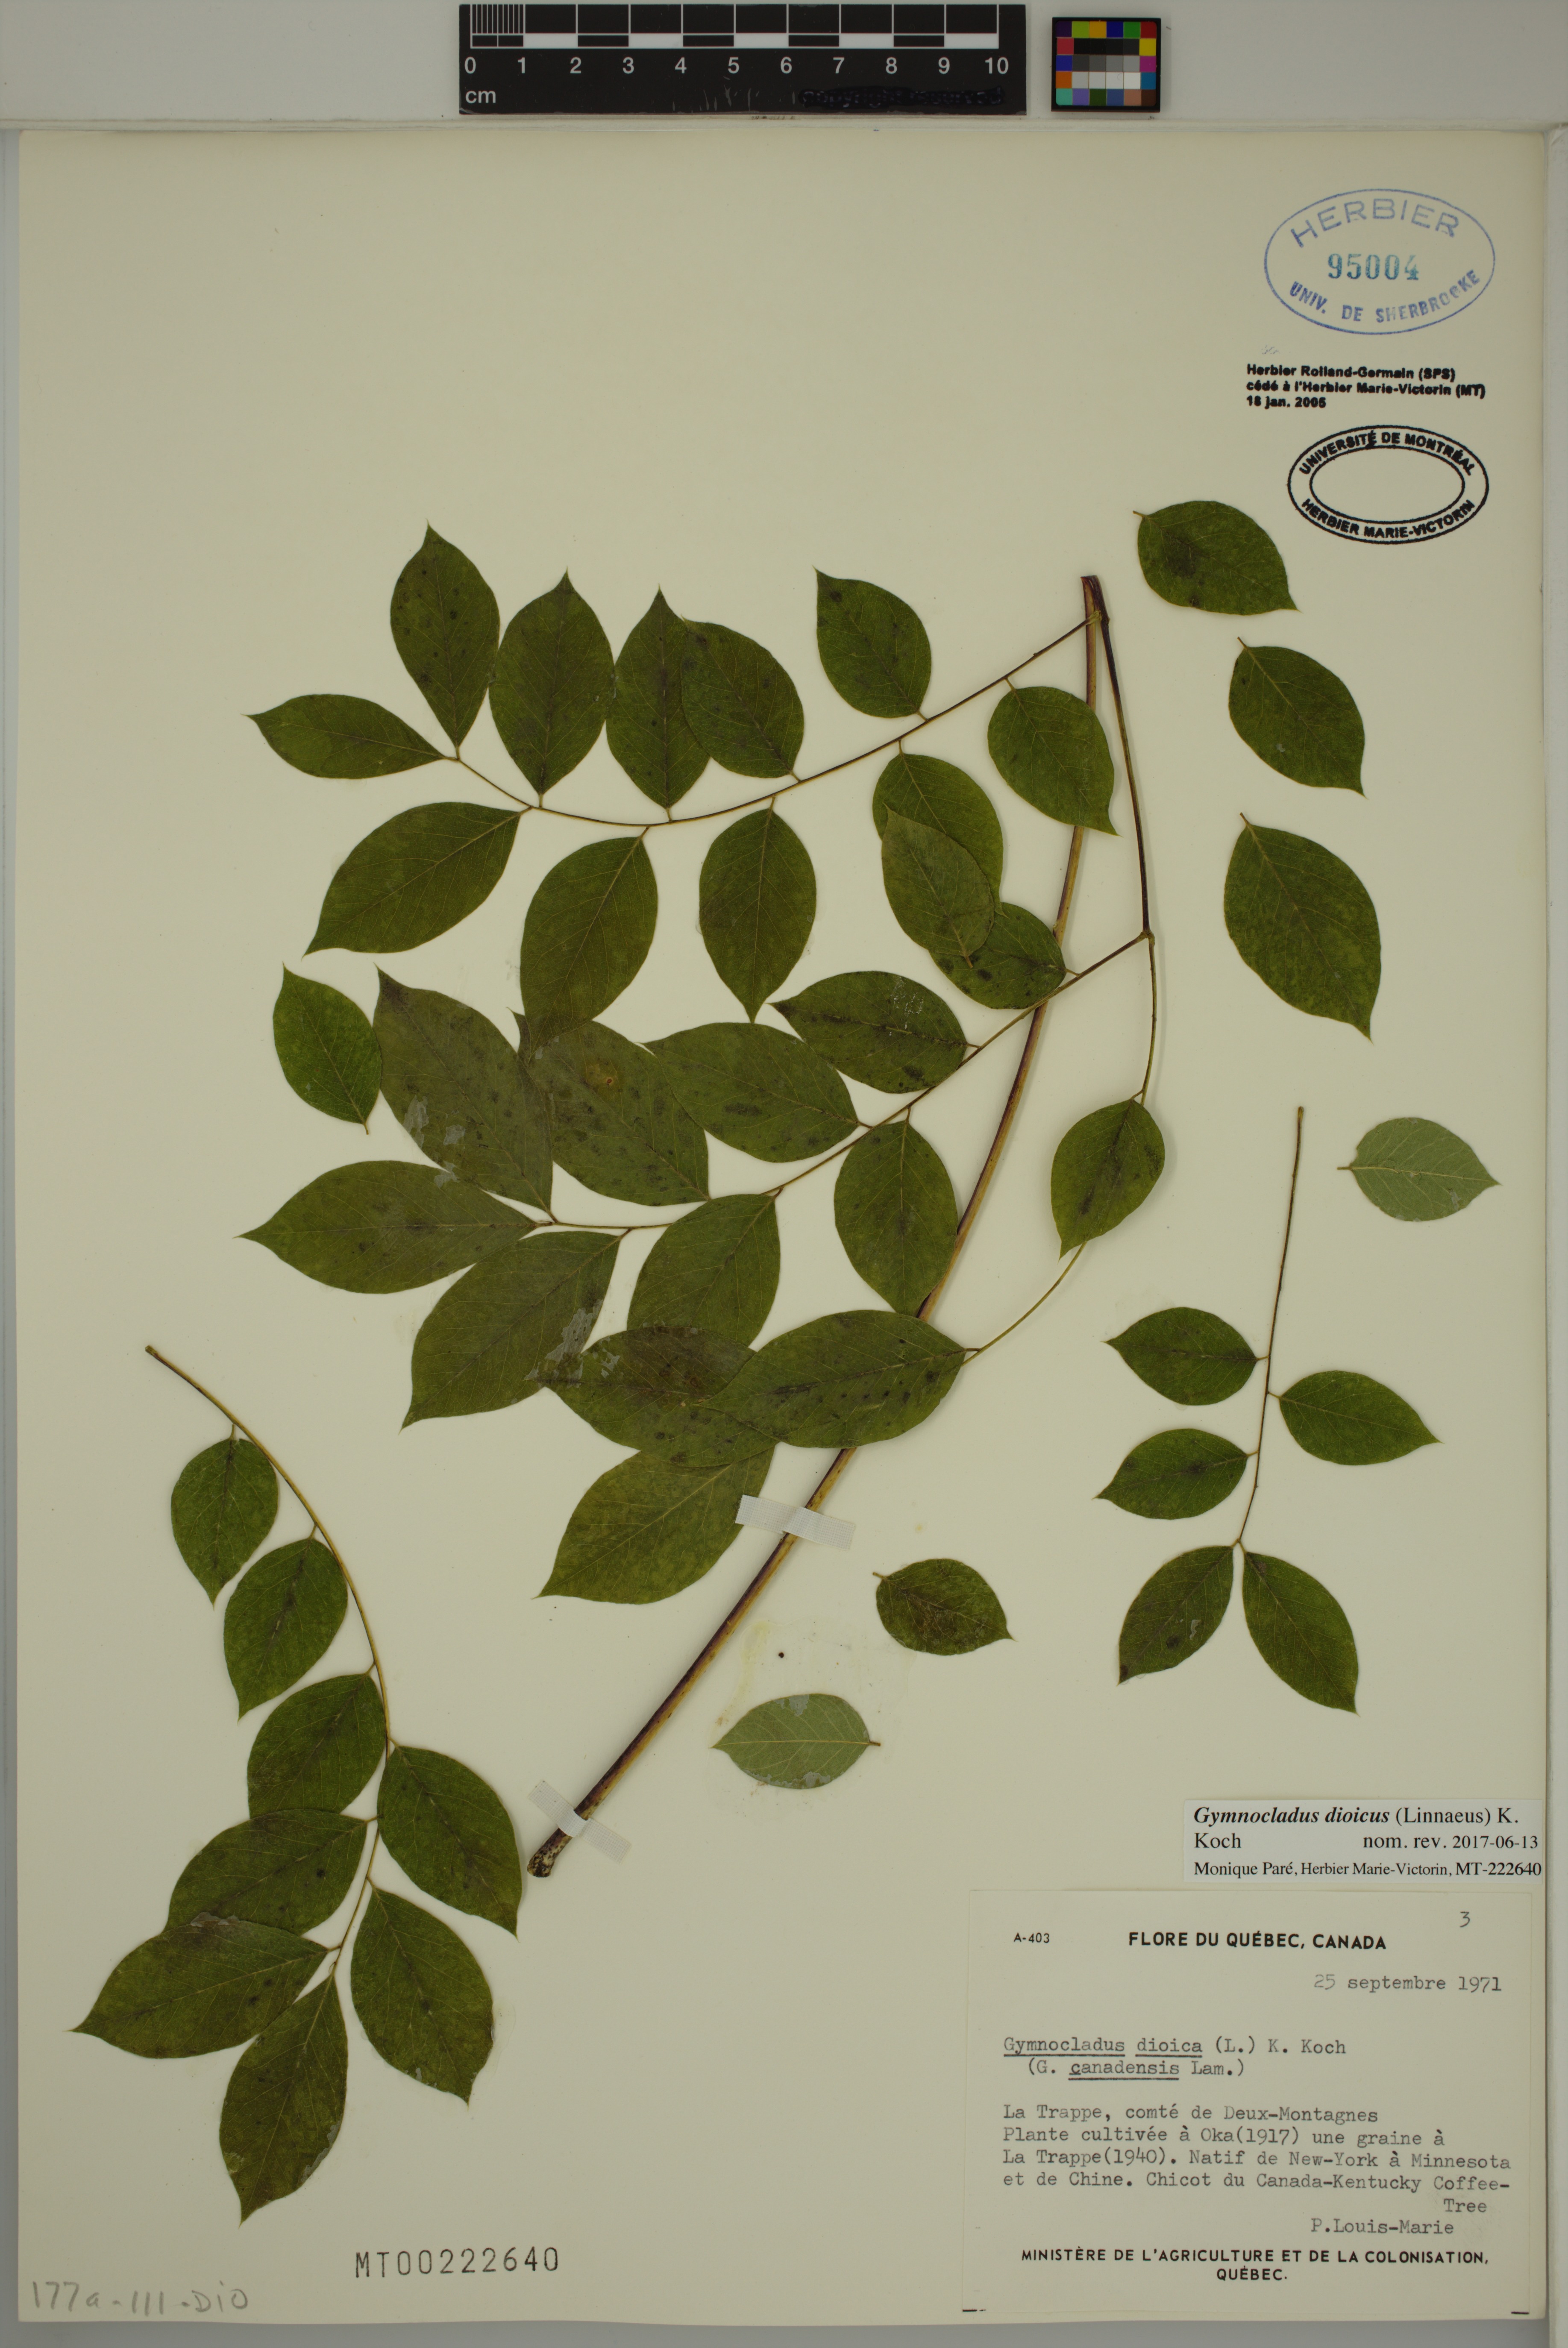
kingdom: Plantae
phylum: Tracheophyta
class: Magnoliopsida
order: Fabales
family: Fabaceae
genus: Gymnocladus
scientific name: Gymnocladus dioicus
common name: Kentucky coffee-tree
